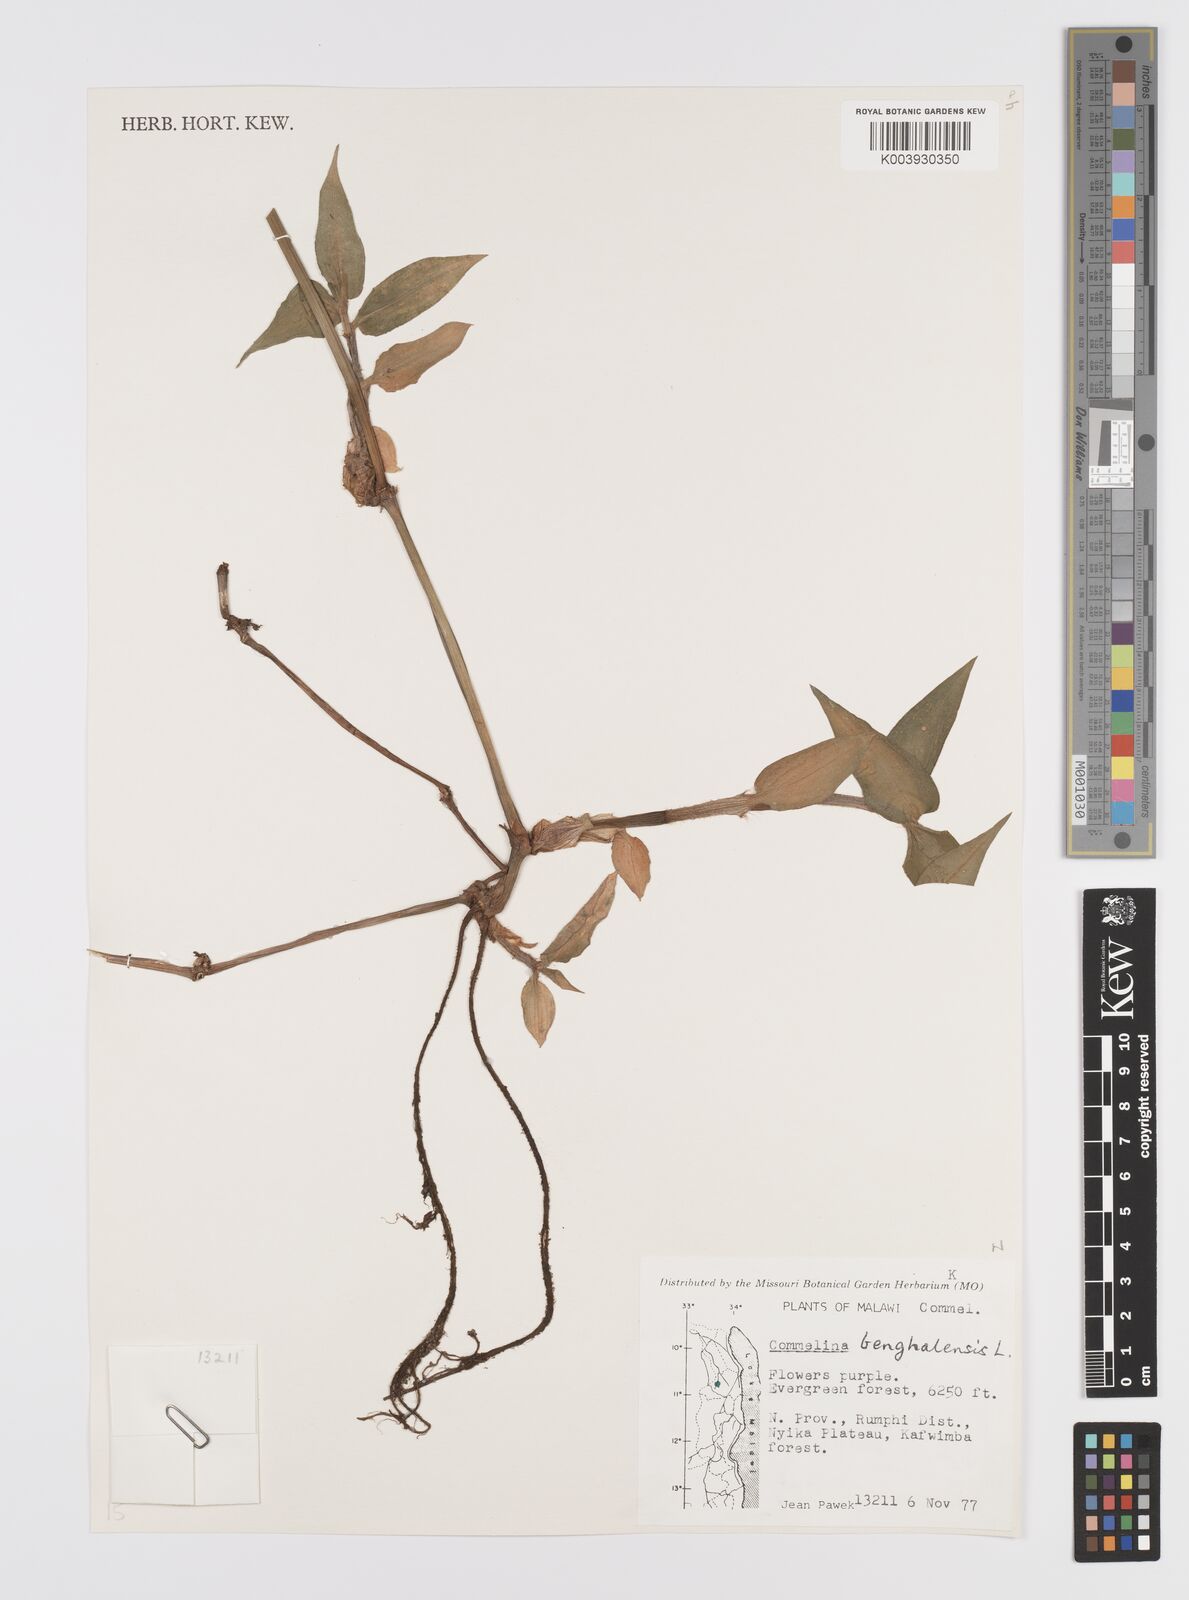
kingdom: Plantae
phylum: Tracheophyta
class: Liliopsida
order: Commelinales
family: Commelinaceae
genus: Commelina
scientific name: Commelina benghalensis
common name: Jio
